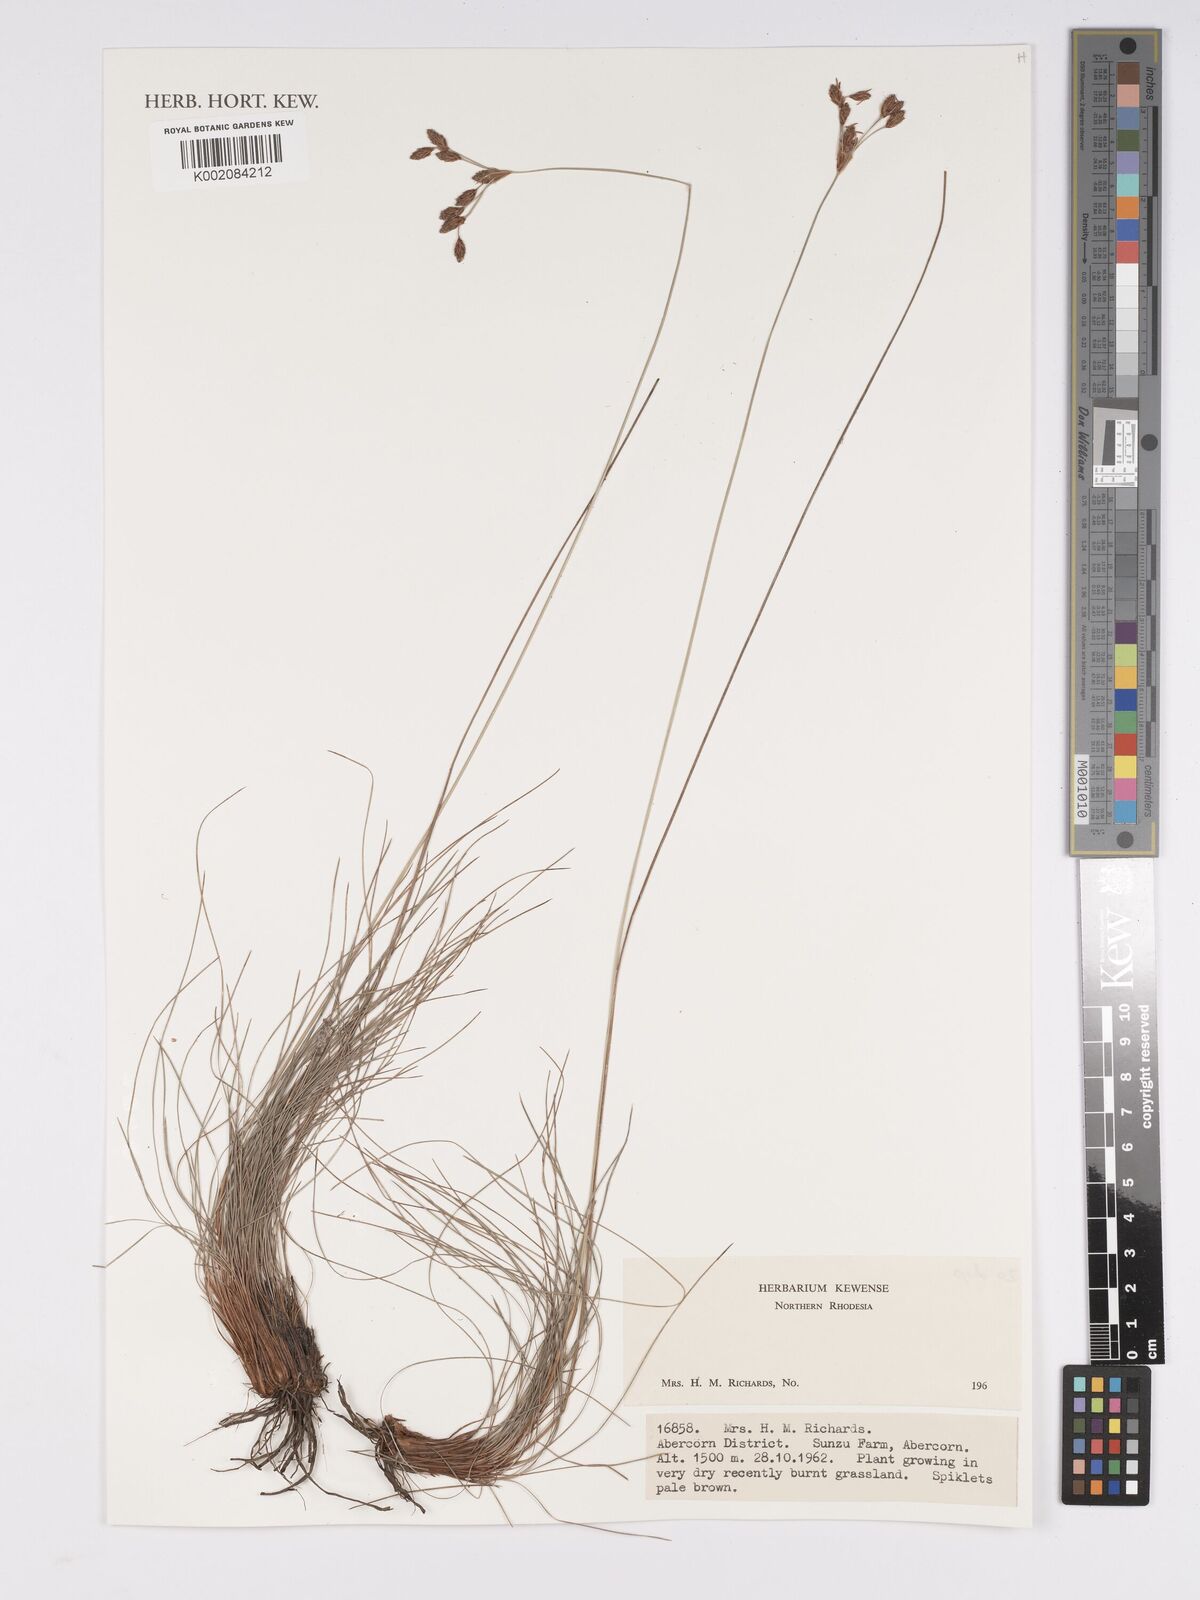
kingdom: Plantae
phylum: Tracheophyta
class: Liliopsida
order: Poales
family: Cyperaceae
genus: Bulbostylis
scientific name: Bulbostylis
